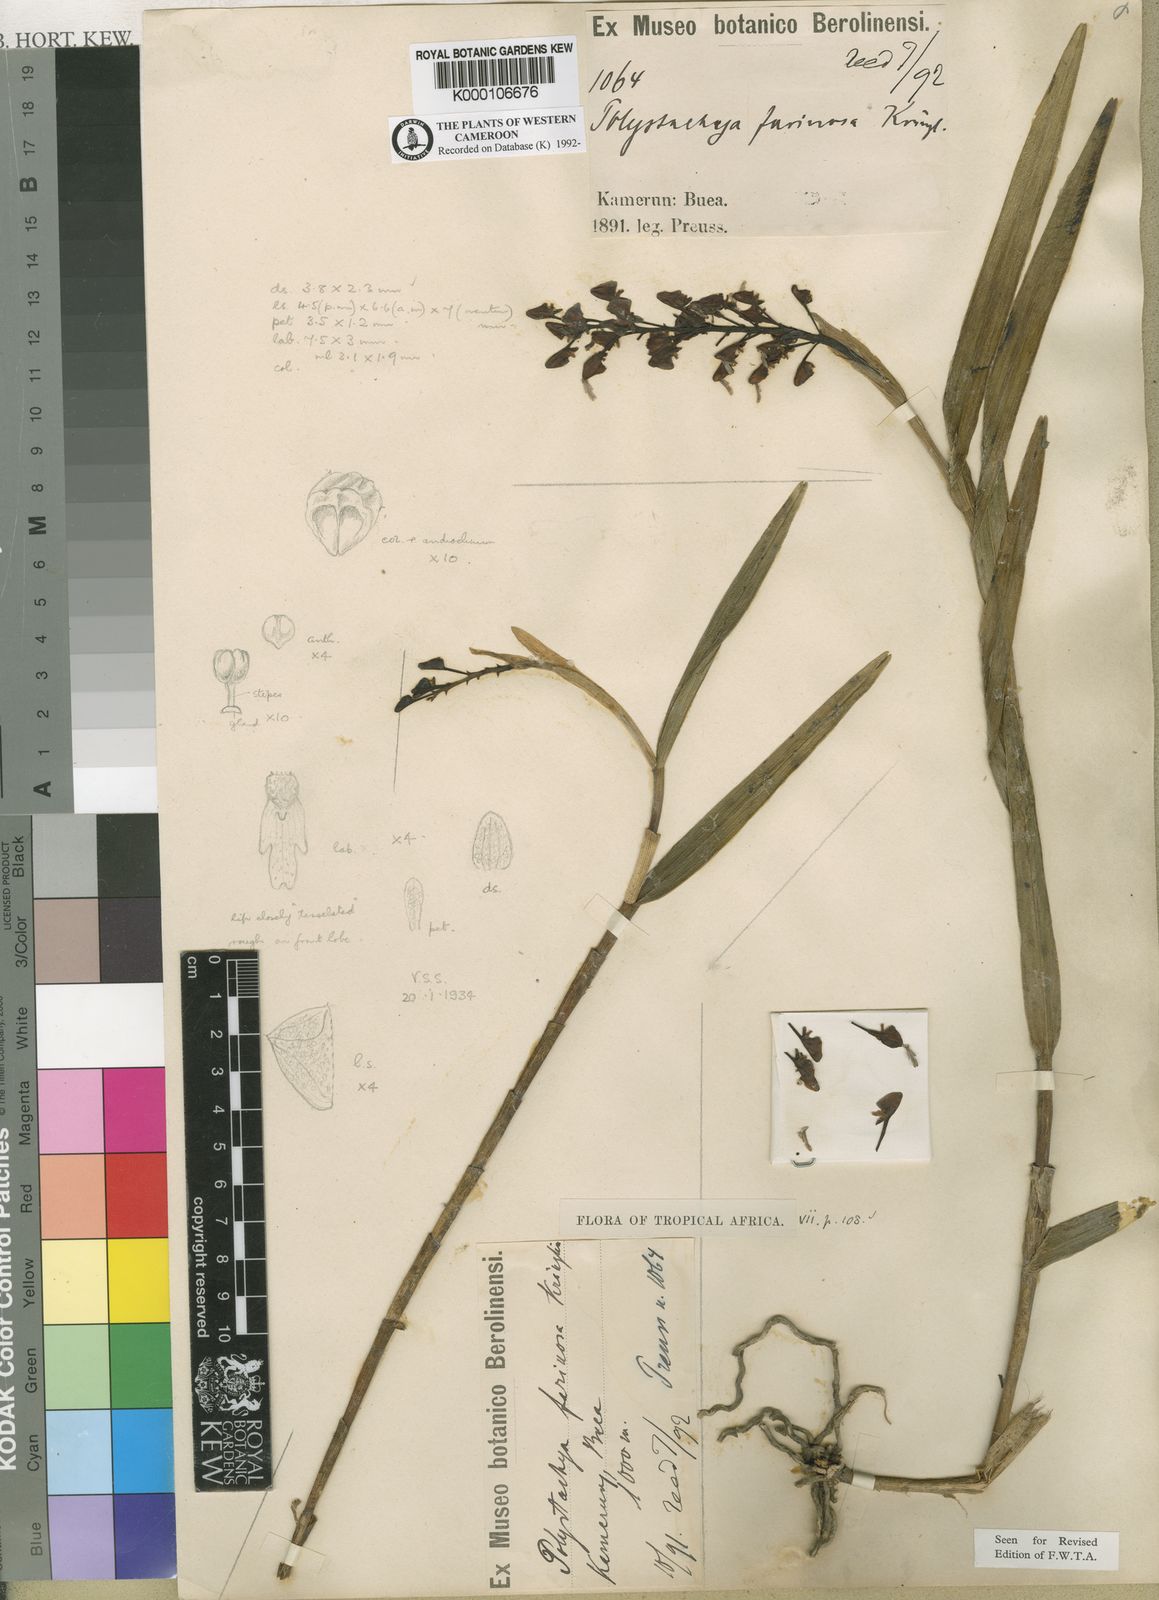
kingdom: Plantae
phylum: Tracheophyta
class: Liliopsida
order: Asparagales
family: Orchidaceae
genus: Polystachya
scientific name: Polystachya bifida
